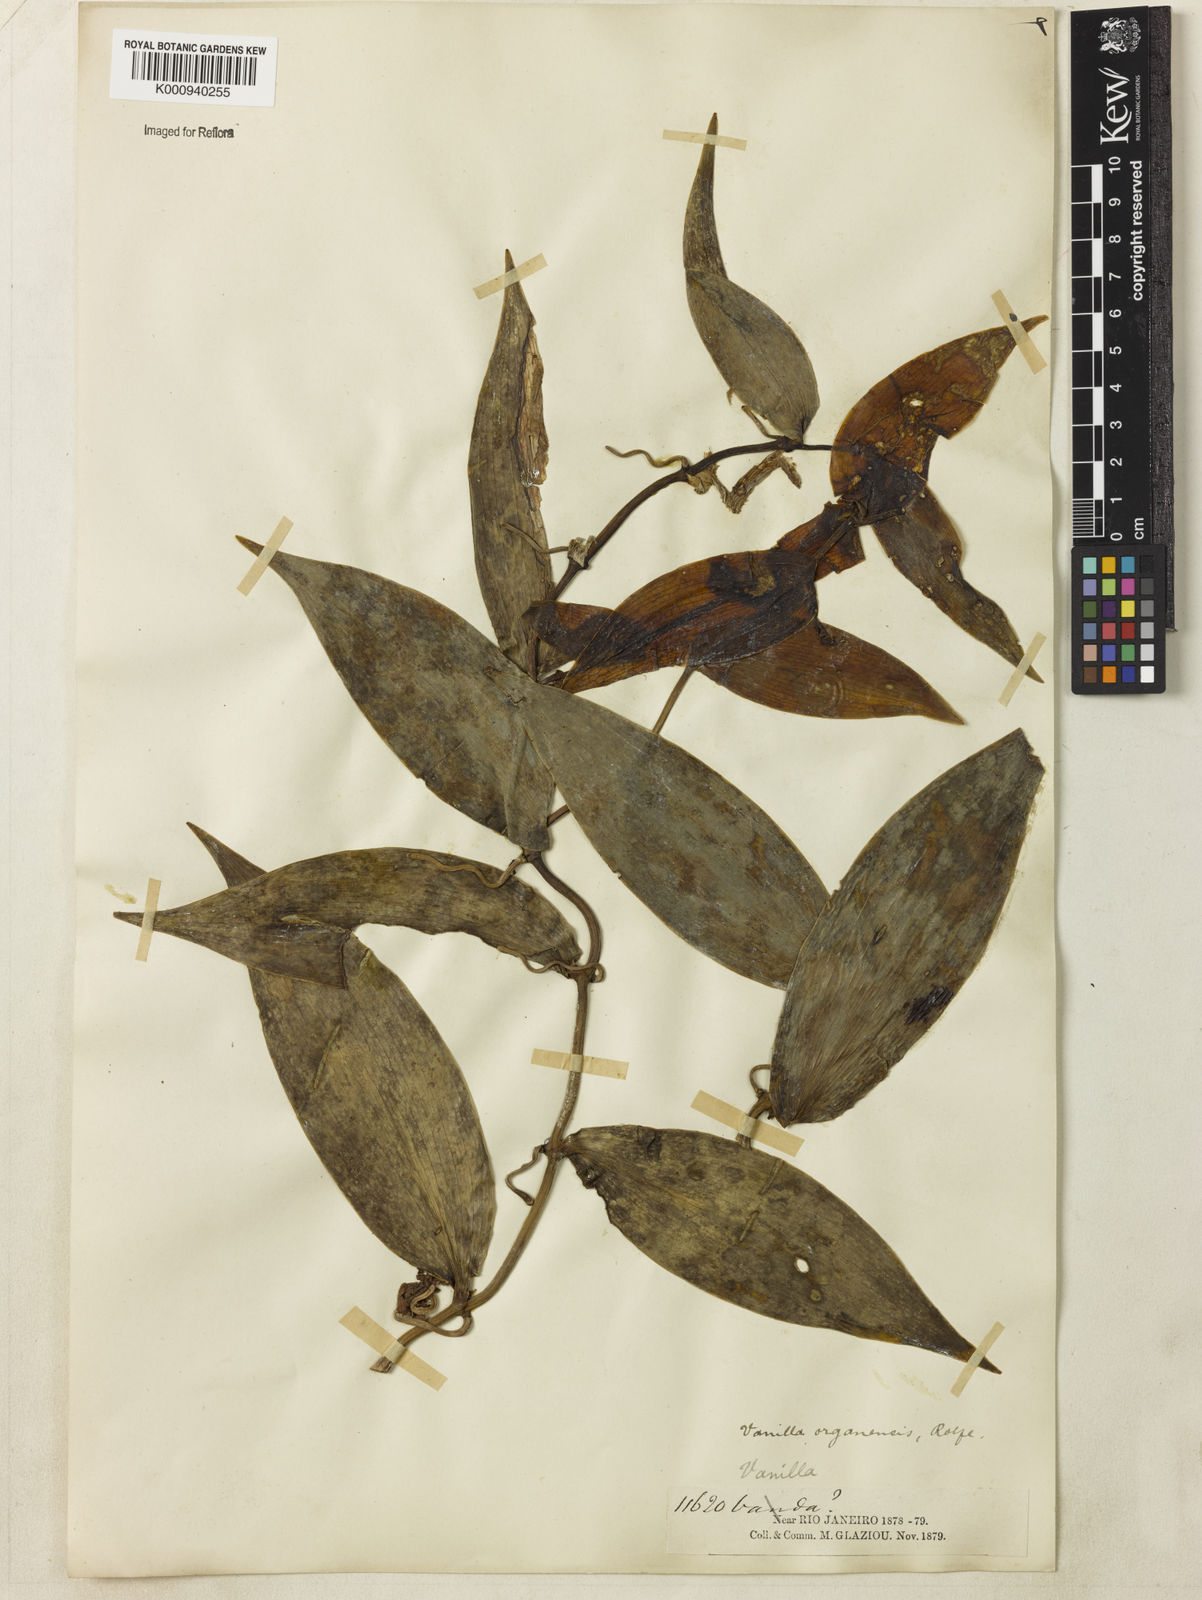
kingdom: Plantae
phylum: Tracheophyta
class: Liliopsida
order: Asparagales
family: Orchidaceae
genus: Vanilla
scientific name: Vanilla acuta
